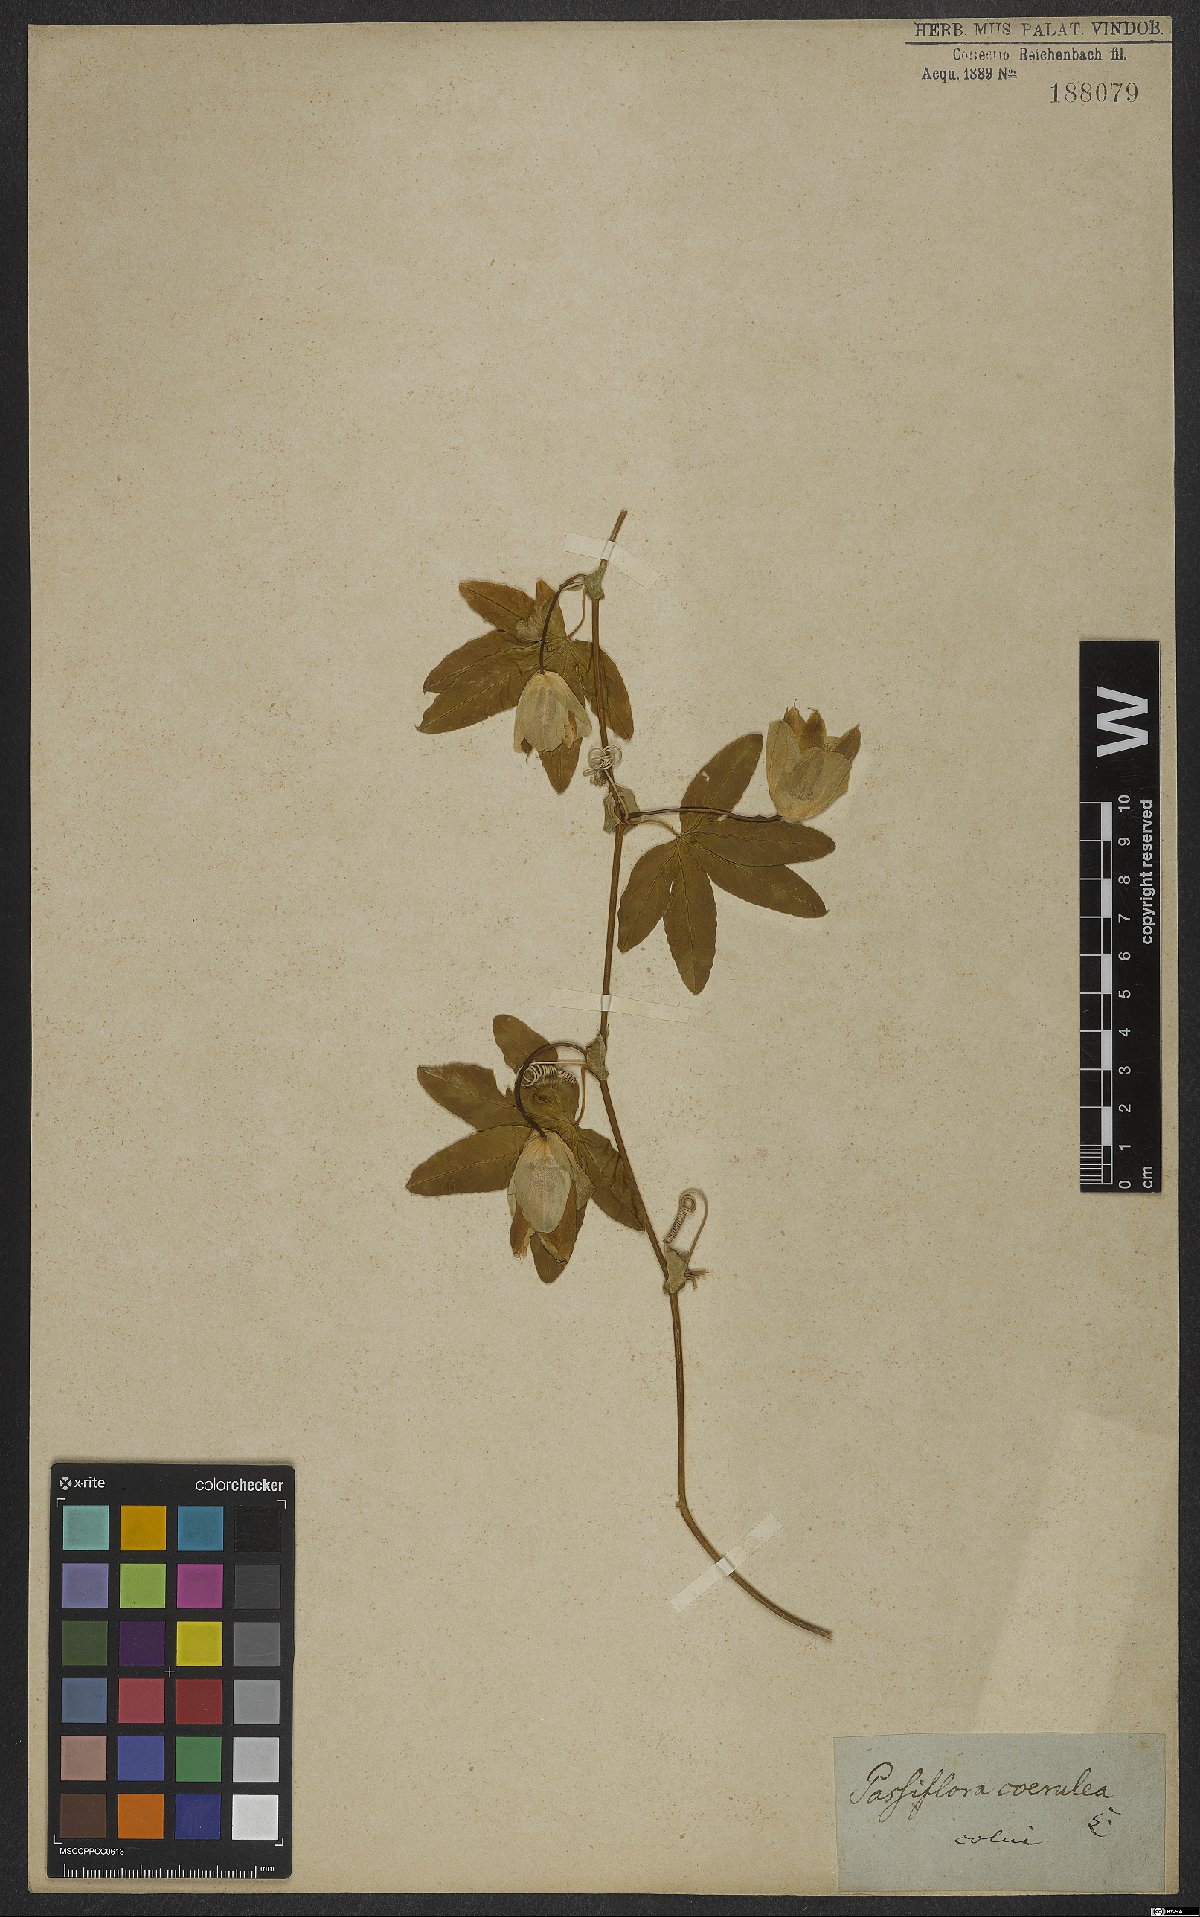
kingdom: Plantae
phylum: Tracheophyta
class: Magnoliopsida
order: Malpighiales
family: Passifloraceae
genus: Passiflora
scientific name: Passiflora caerulea
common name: Blue passionflower
